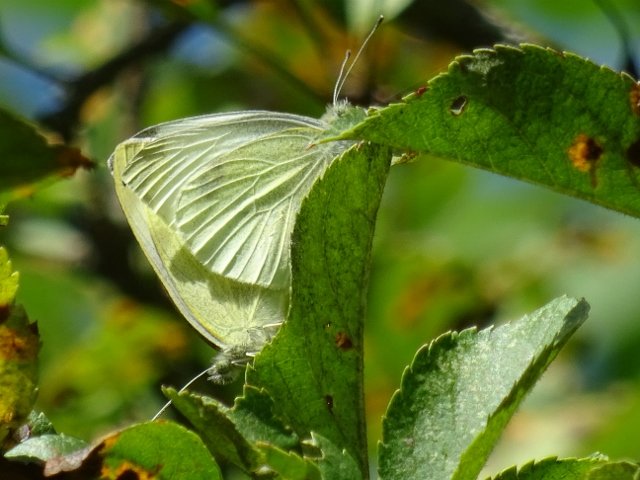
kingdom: Animalia
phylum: Arthropoda
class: Insecta
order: Lepidoptera
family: Pieridae
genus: Pieris
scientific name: Pieris rapae
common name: Cabbage White
